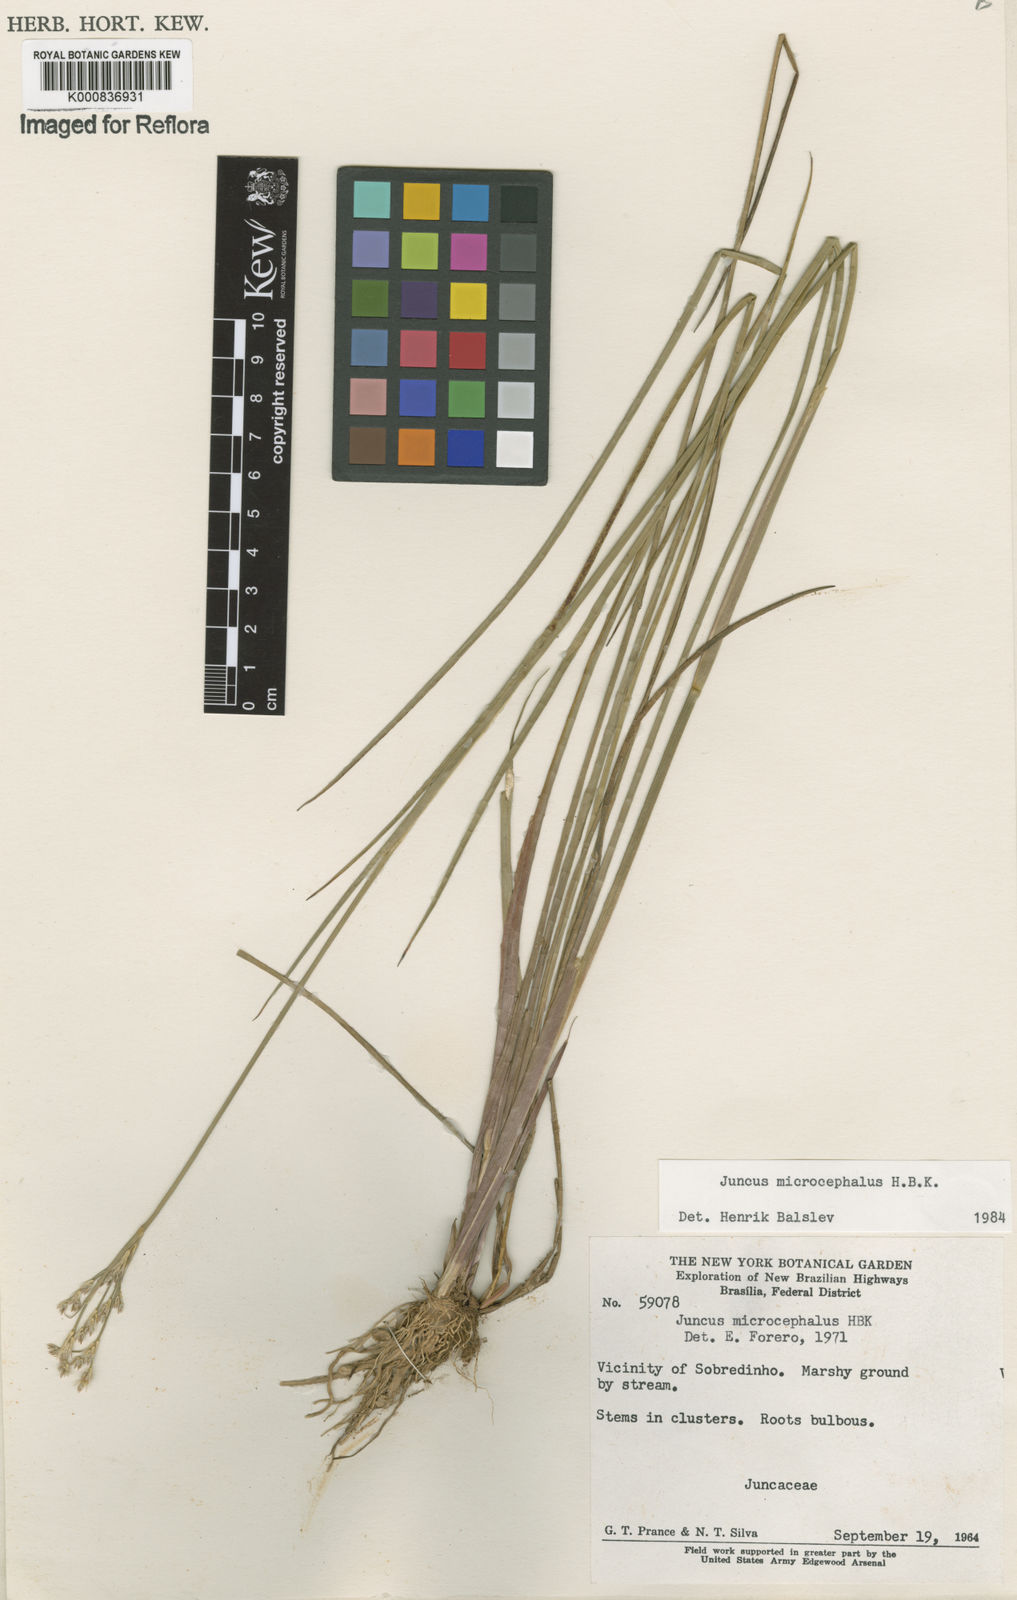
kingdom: Plantae
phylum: Tracheophyta
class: Liliopsida
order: Poales
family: Juncaceae
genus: Juncus
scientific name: Juncus microcephalus
